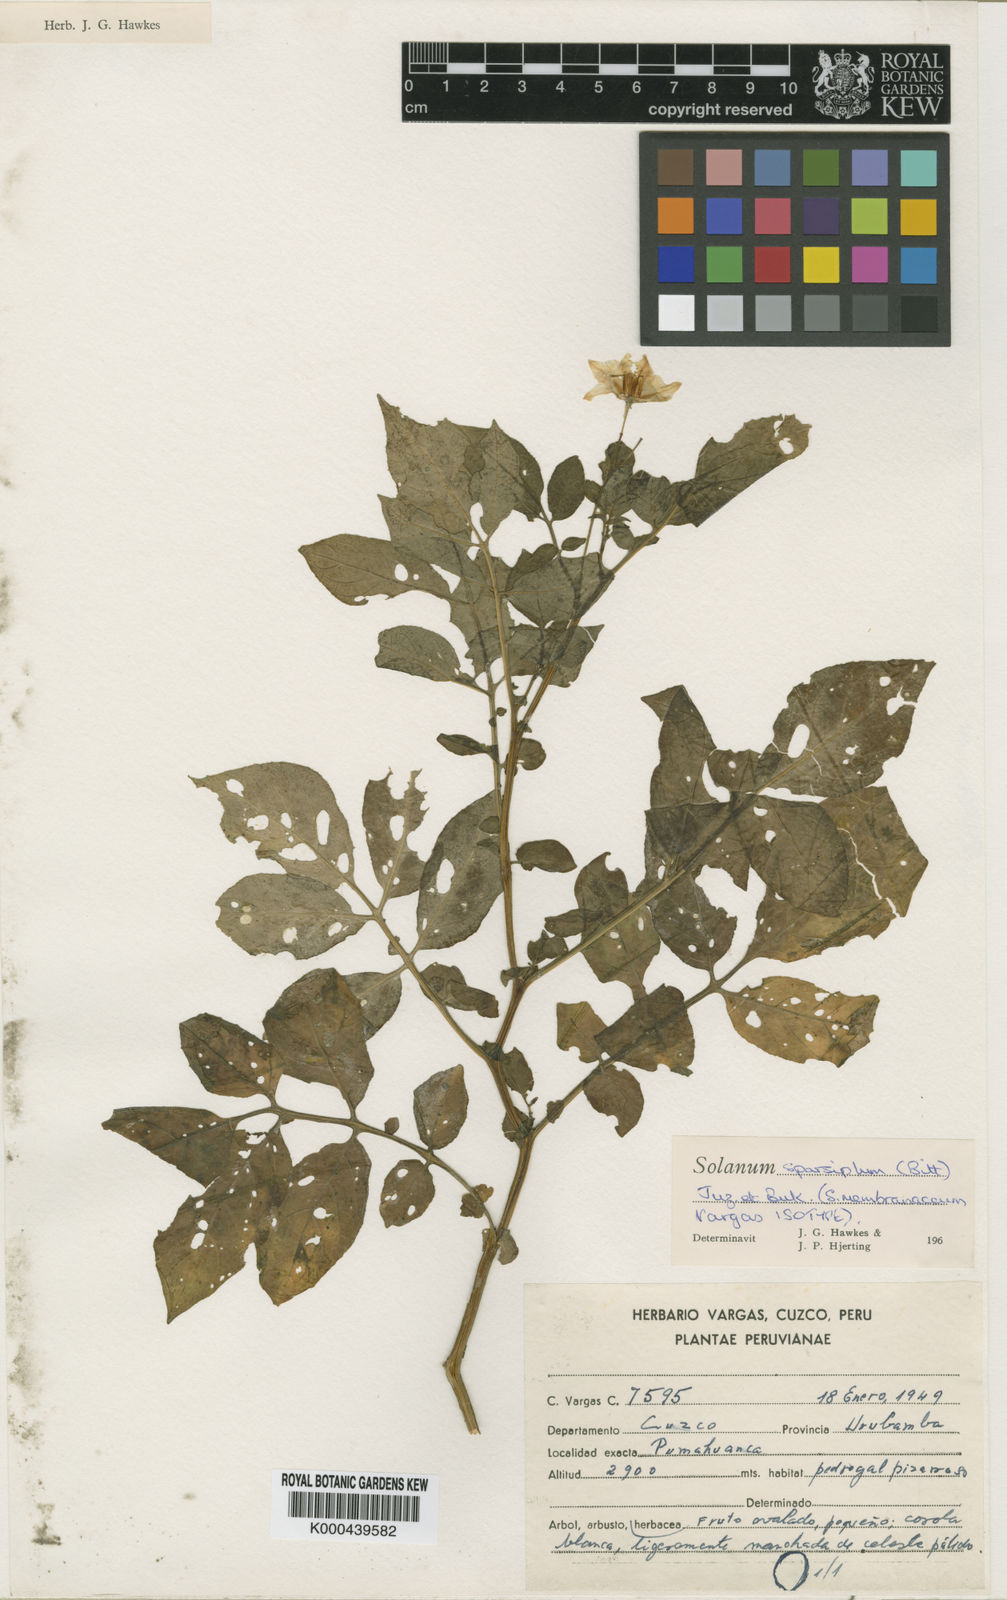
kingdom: Plantae
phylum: Tracheophyta
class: Magnoliopsida
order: Solanales
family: Solanaceae
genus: Solanum
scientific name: Solanum brevicaule
